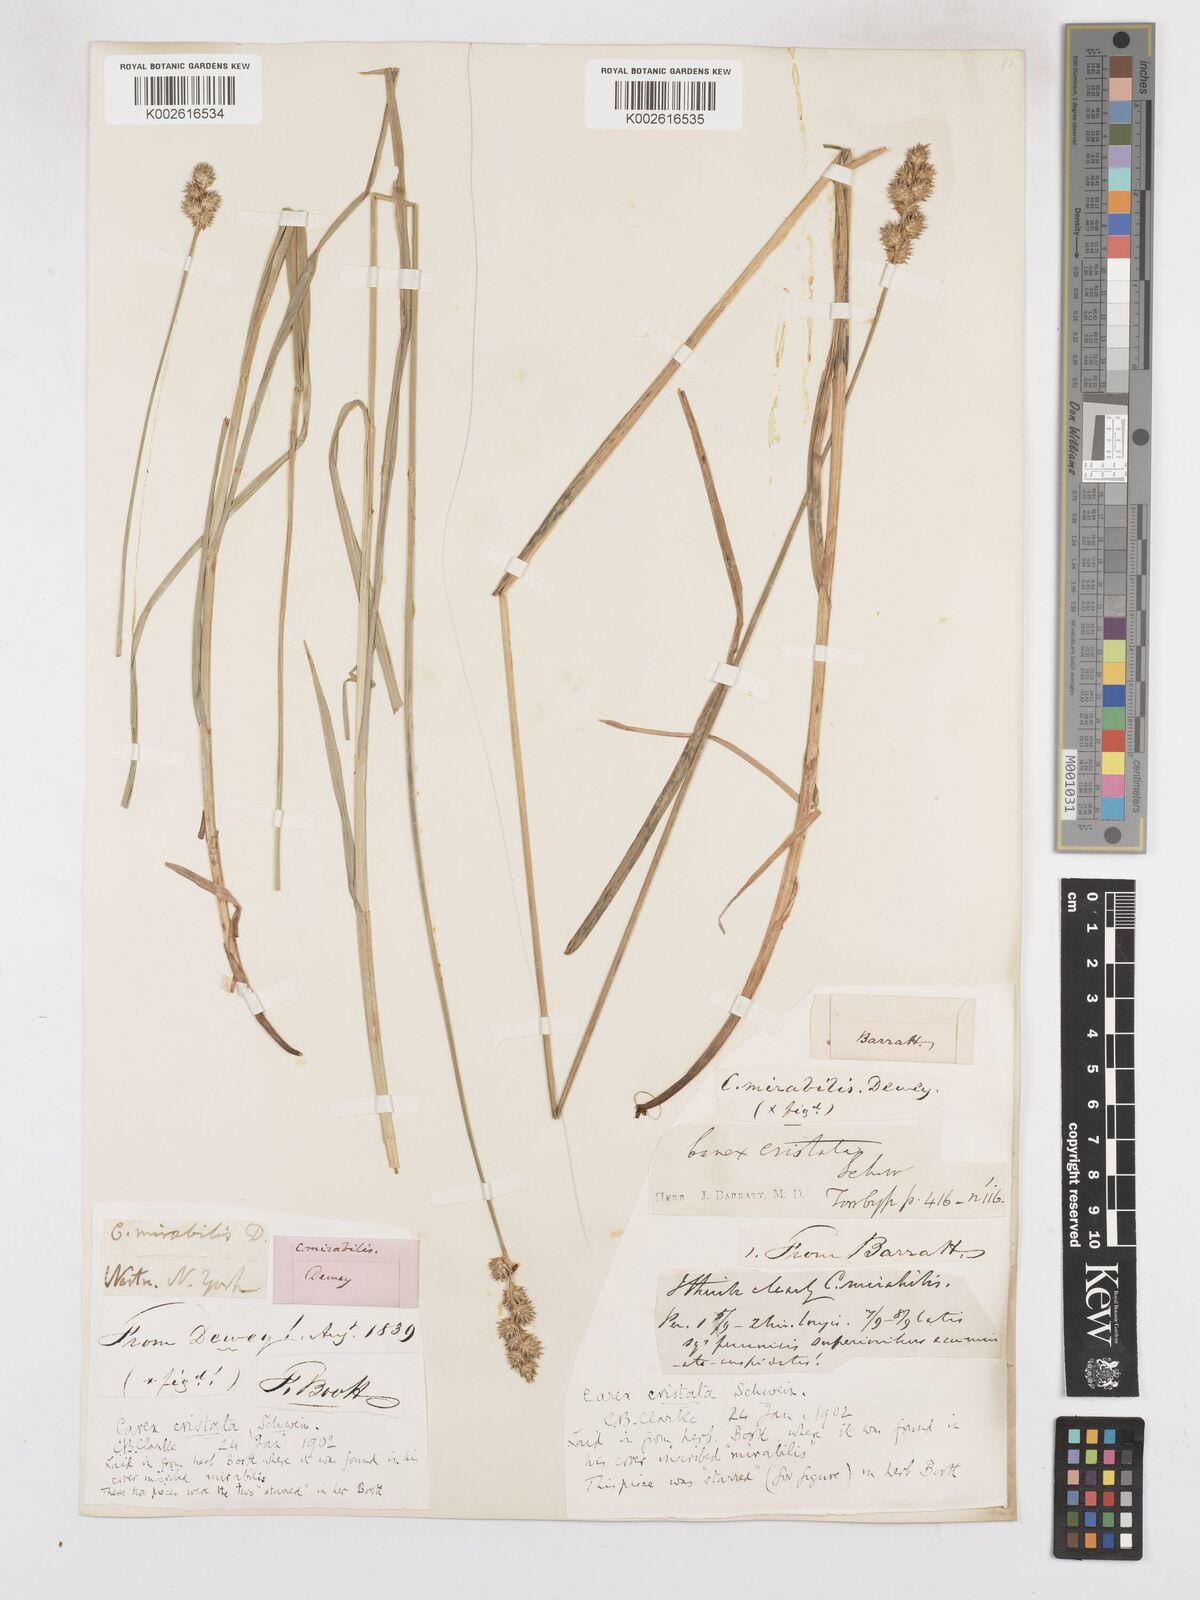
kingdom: Plantae
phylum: Tracheophyta
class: Liliopsida
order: Poales
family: Cyperaceae
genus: Carex
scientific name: Carex cristatella
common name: Crested oval sedge
